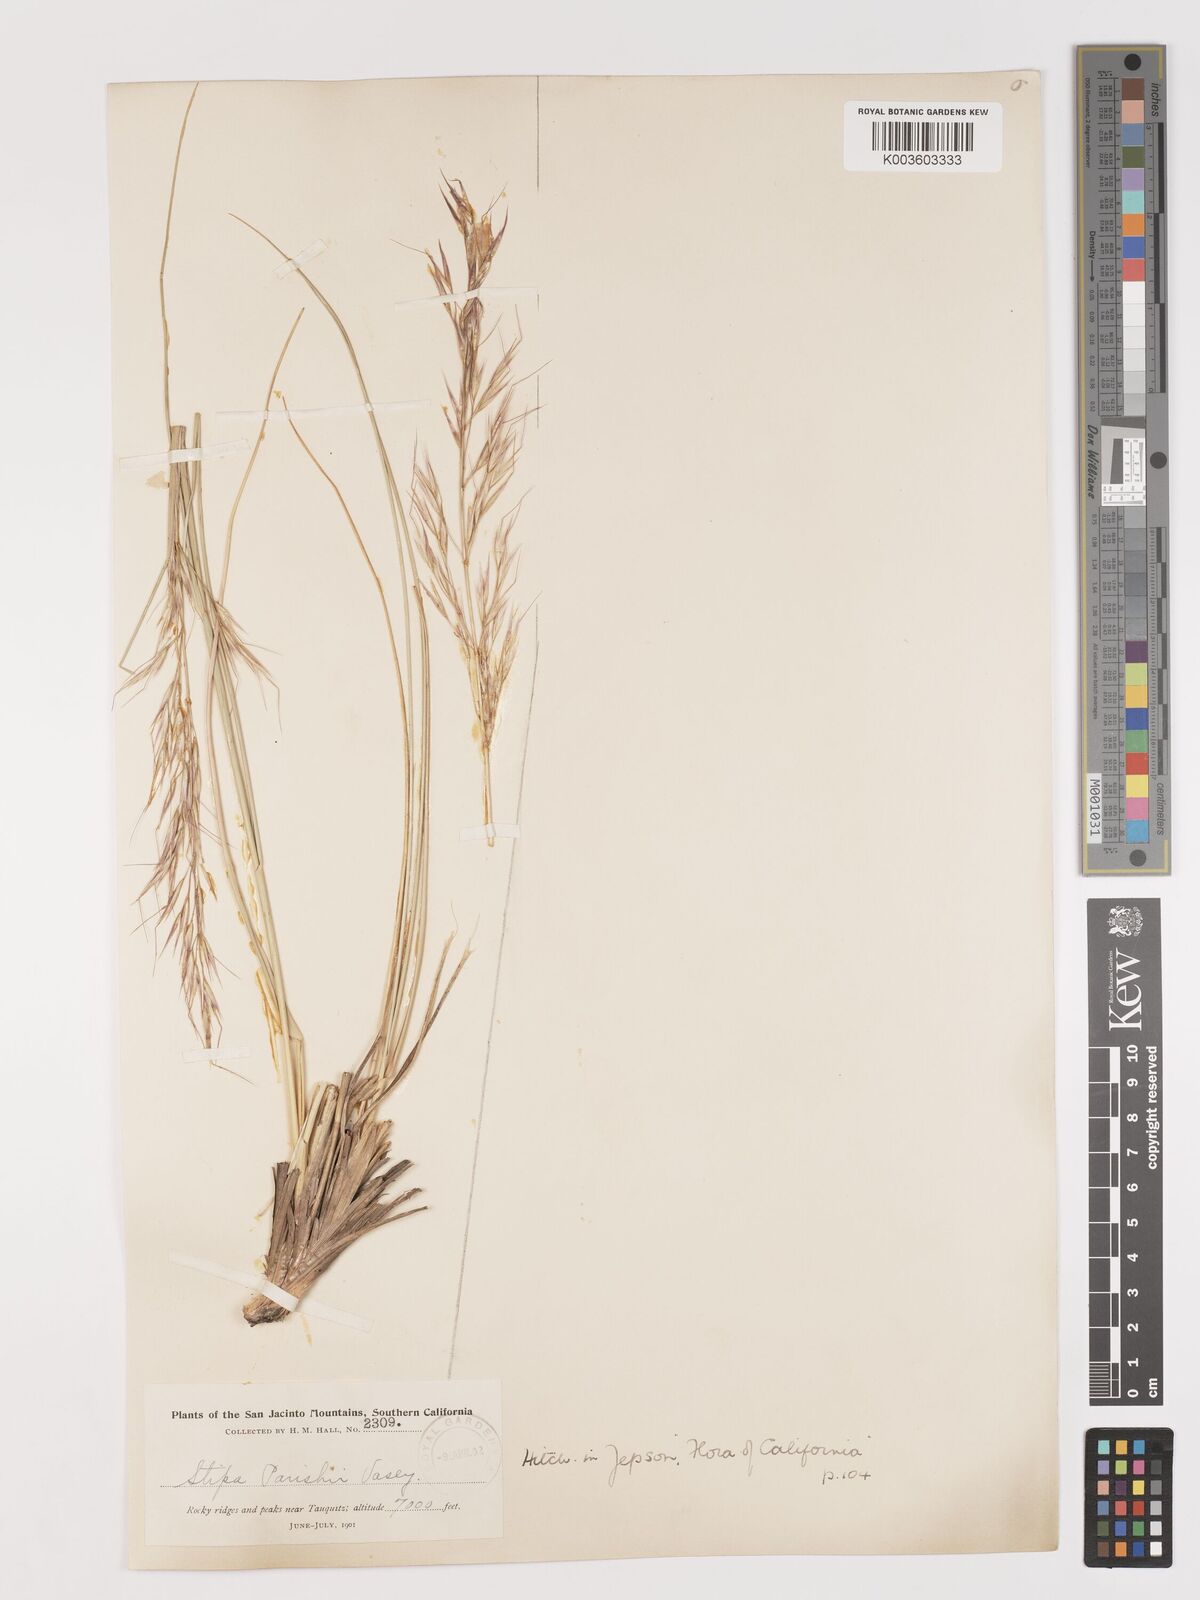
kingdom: Plantae
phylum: Tracheophyta
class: Liliopsida
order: Poales
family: Poaceae
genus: Hesperostipa
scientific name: Hesperostipa comata
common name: Needle-and-thread grass
